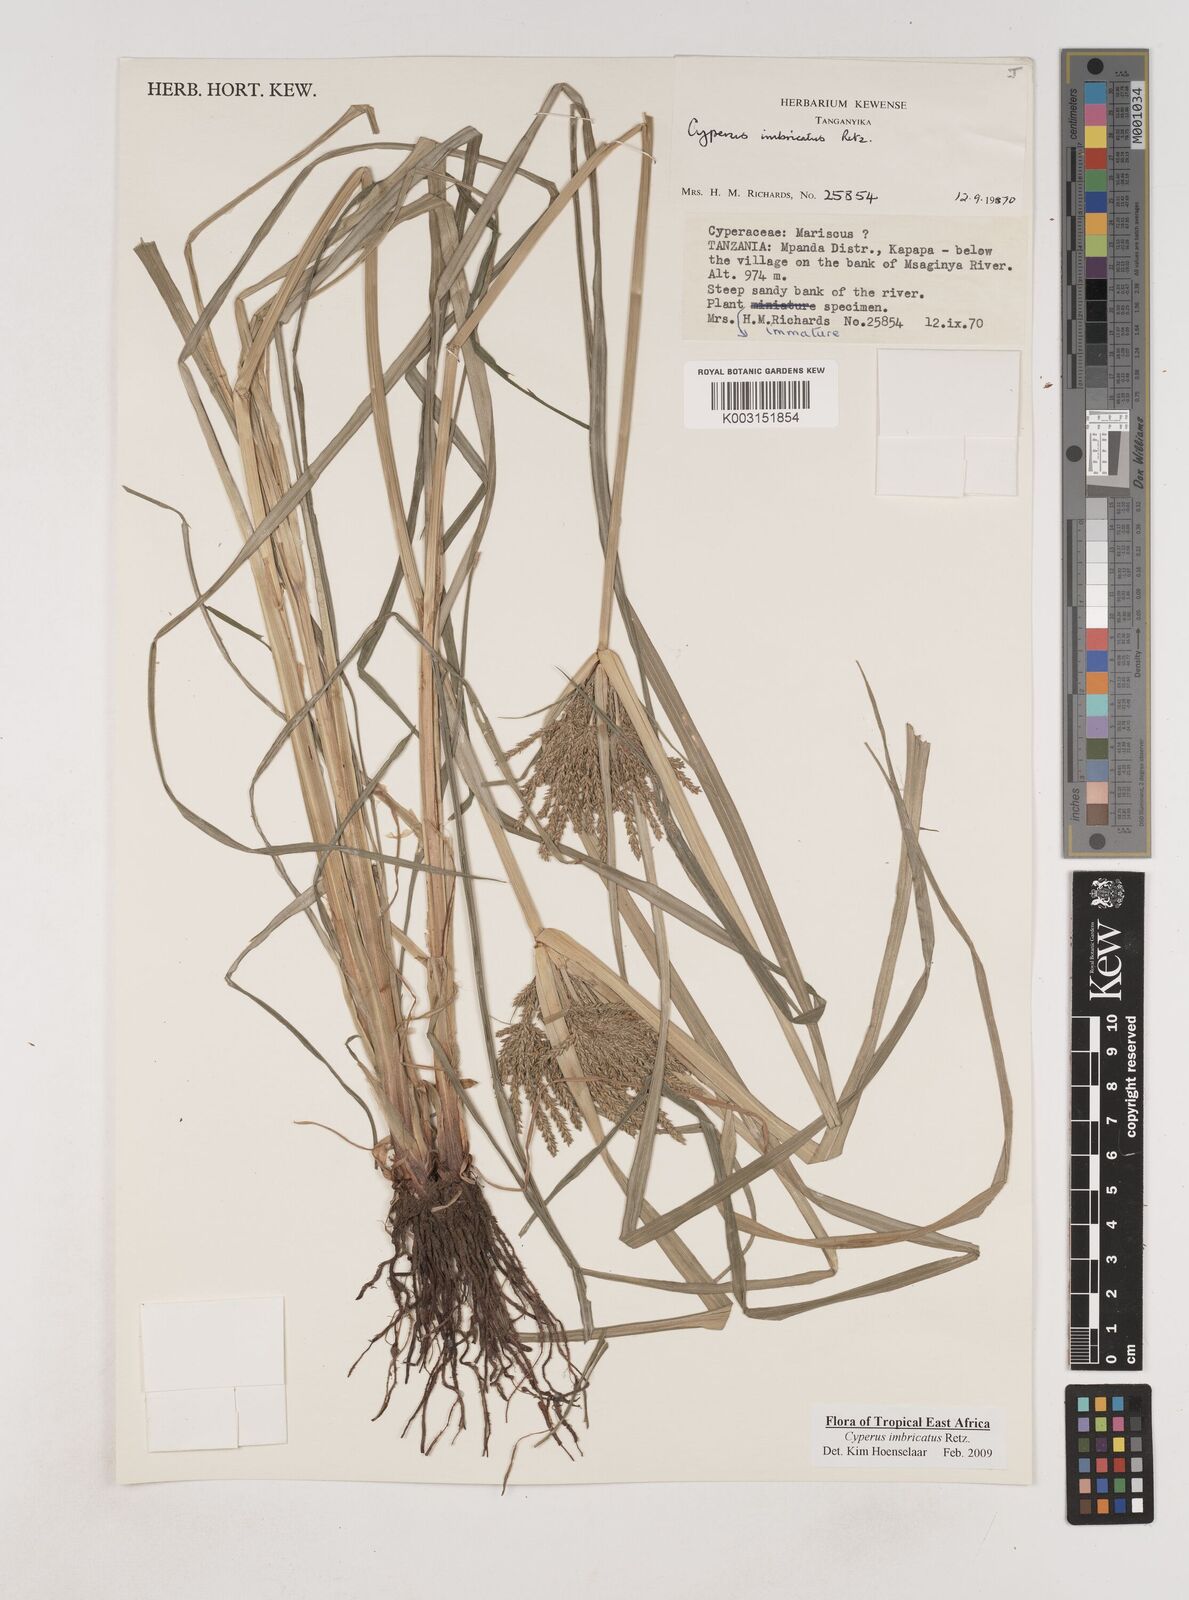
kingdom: Plantae
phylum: Tracheophyta
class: Liliopsida
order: Poales
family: Cyperaceae
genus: Cyperus
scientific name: Cyperus imbricatus
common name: Shingle flatsedge
